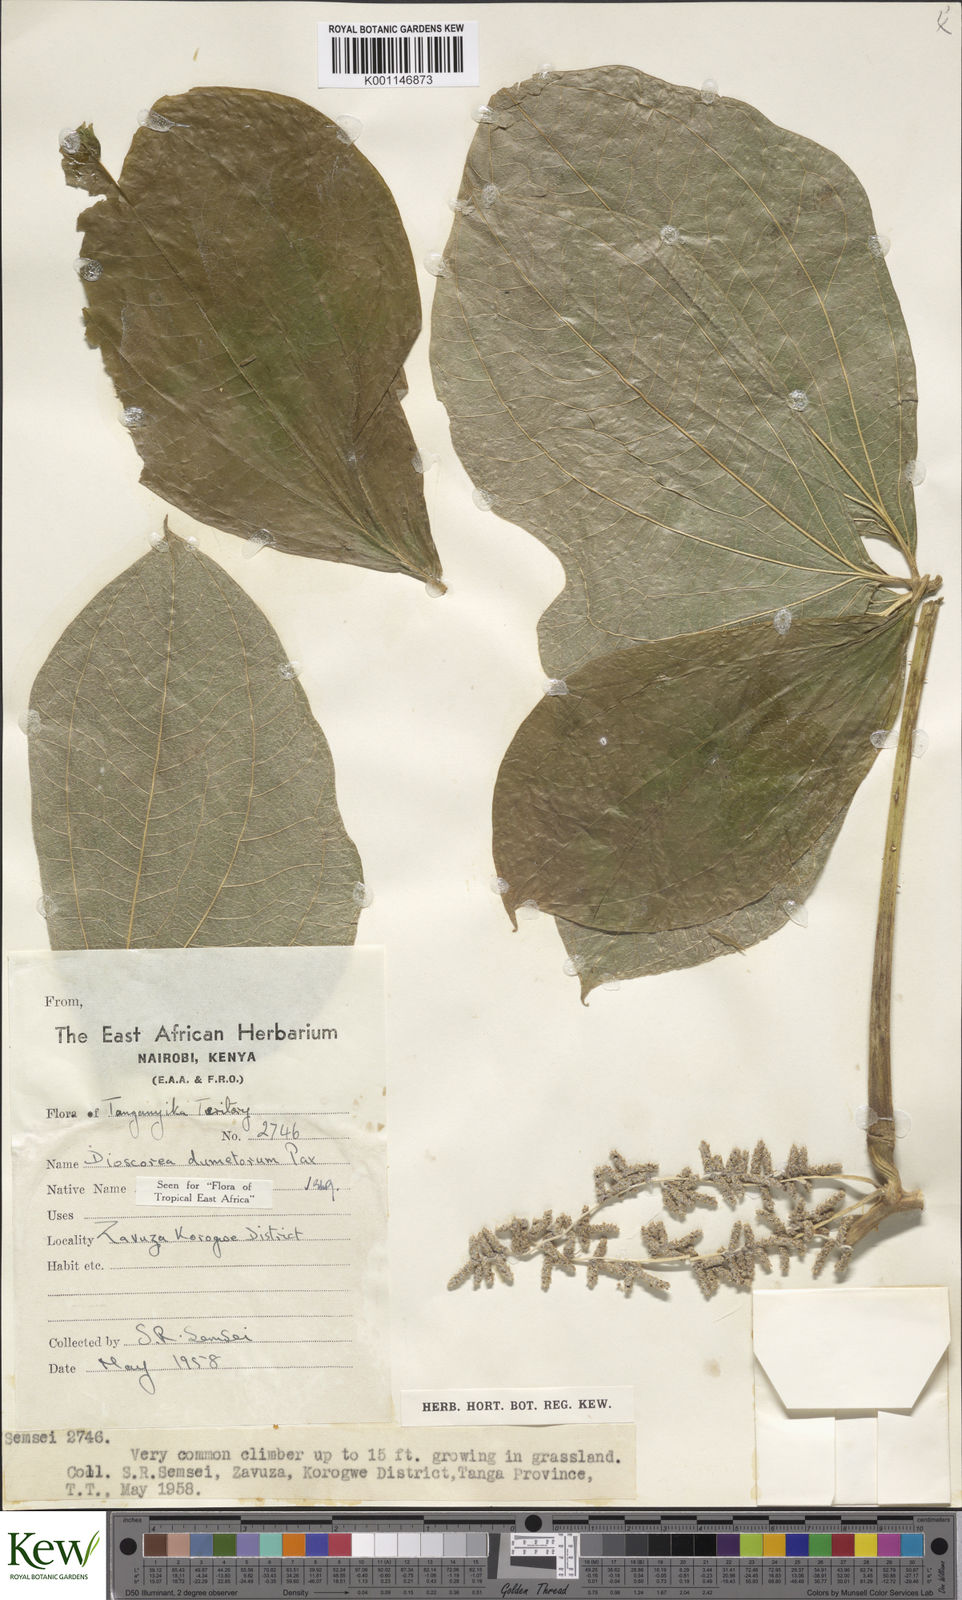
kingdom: Plantae
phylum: Tracheophyta
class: Liliopsida
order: Dioscoreales
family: Dioscoreaceae
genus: Dioscorea
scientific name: Dioscorea dumetorum
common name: African bitter yam
